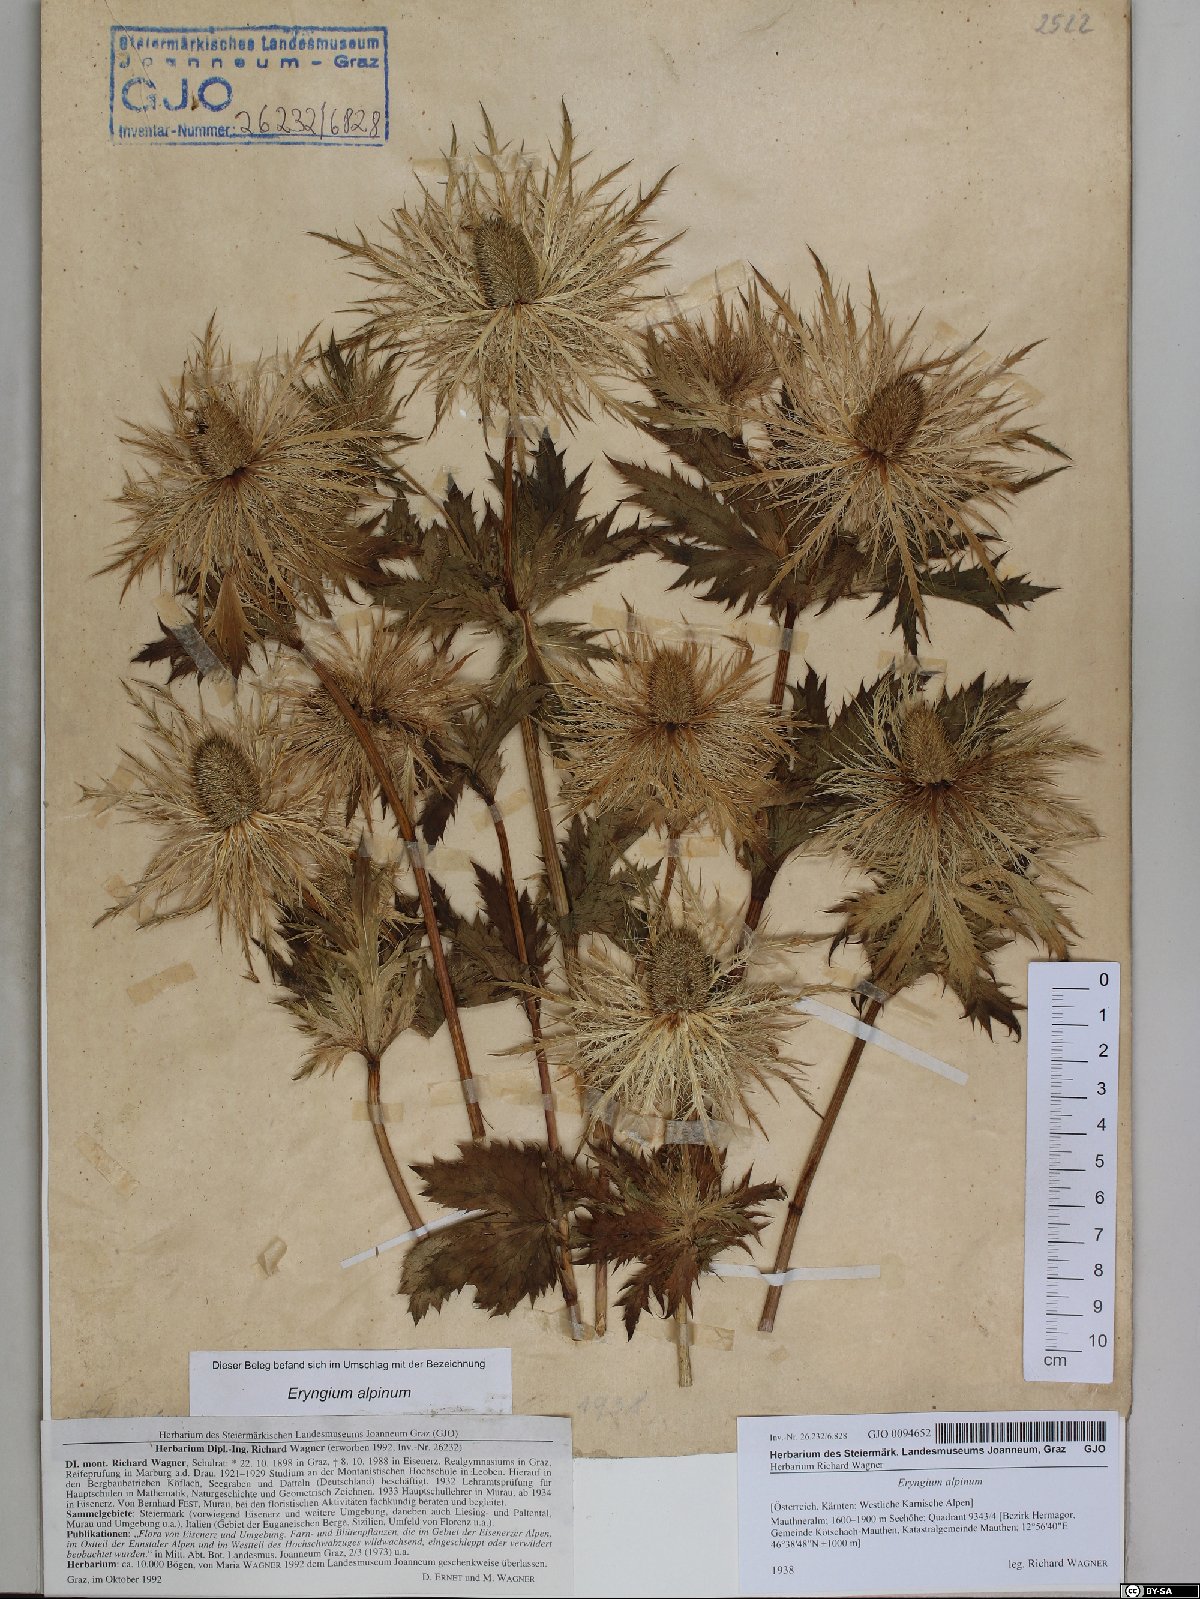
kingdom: Plantae
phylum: Tracheophyta
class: Magnoliopsida
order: Apiales
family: Apiaceae
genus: Eryngium
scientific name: Eryngium alpinum
